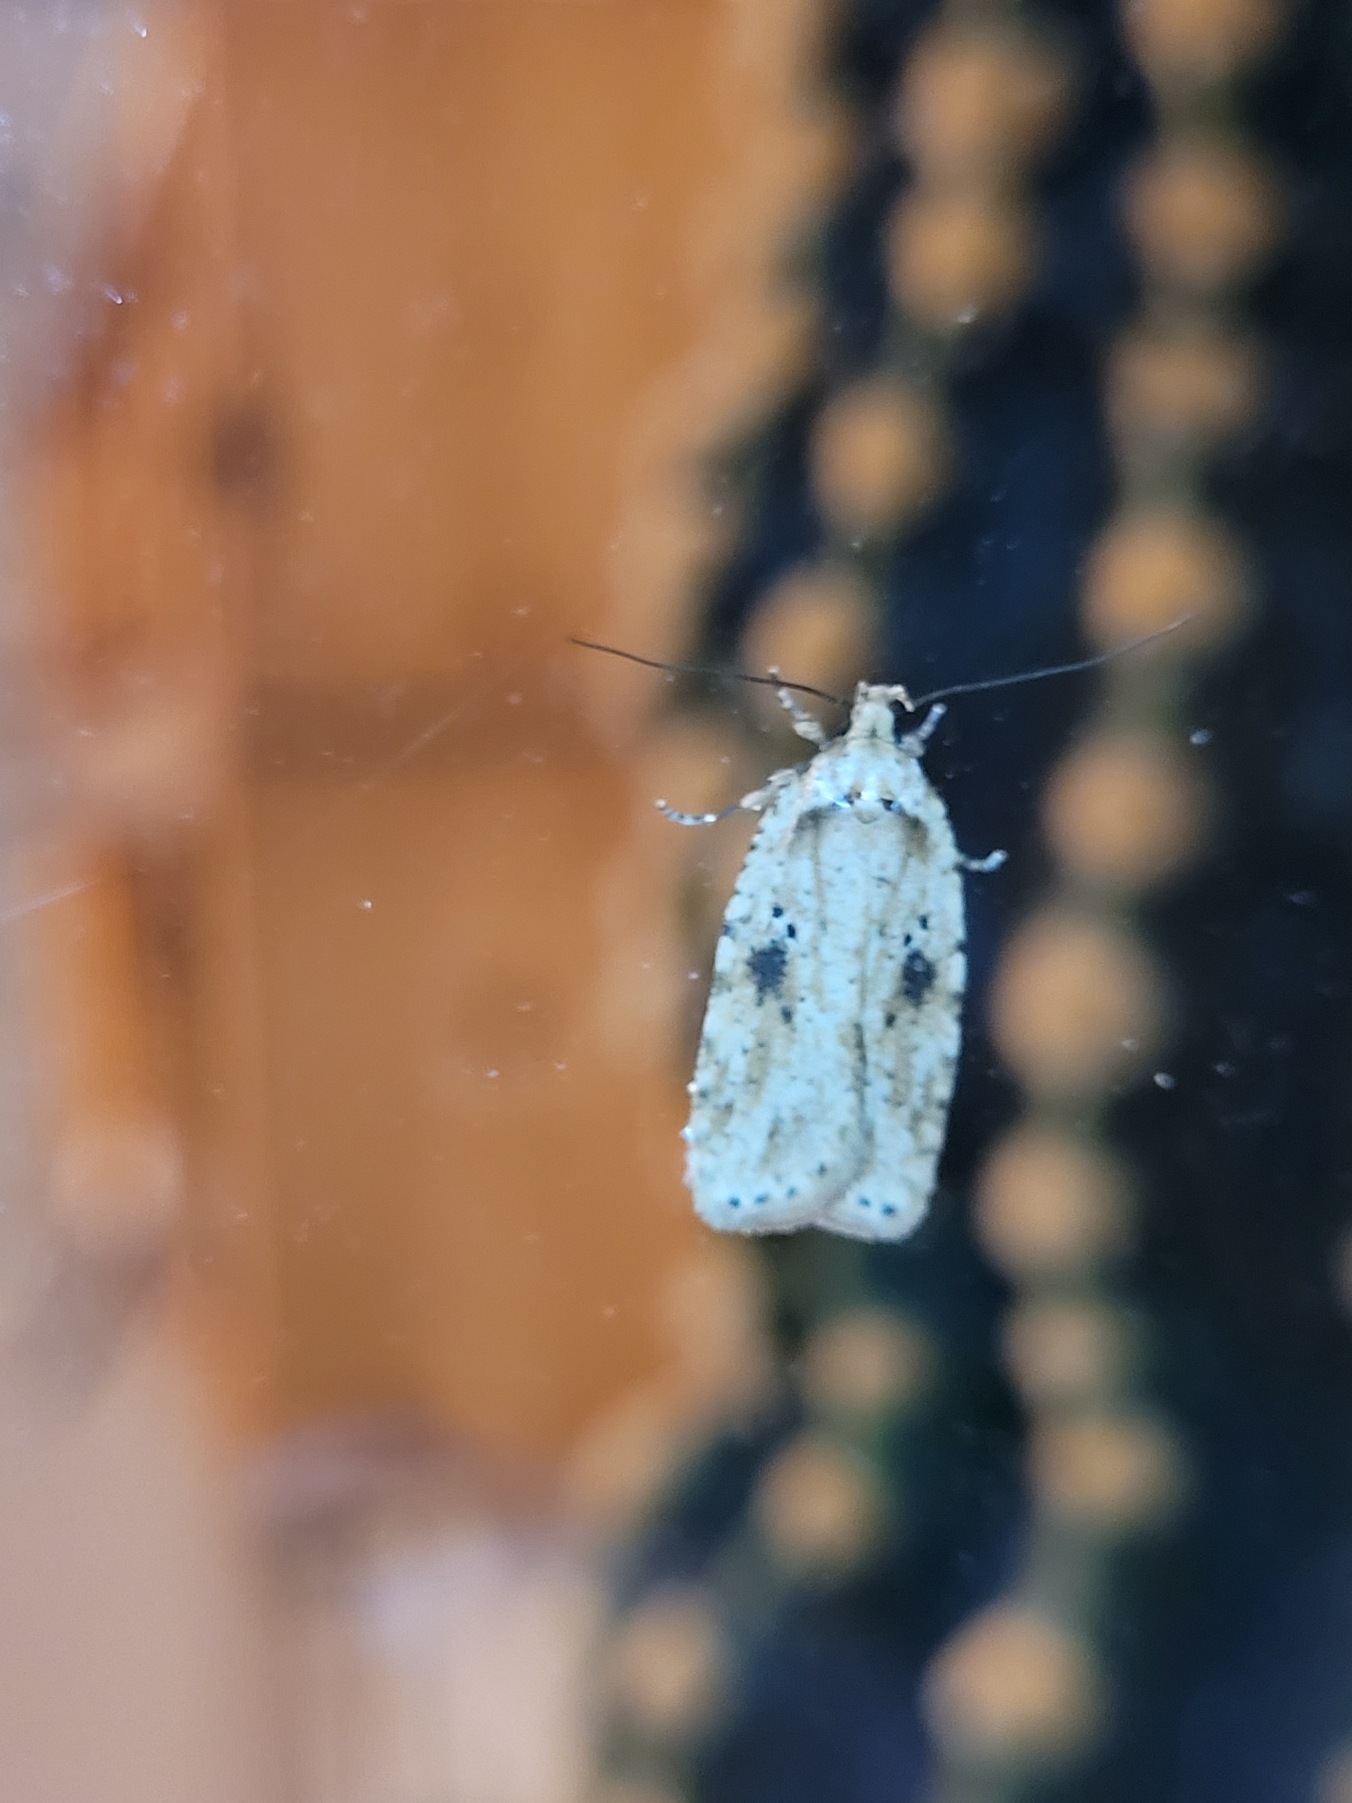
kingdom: Animalia
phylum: Arthropoda
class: Insecta
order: Lepidoptera
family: Depressariidae
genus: Agonopterix
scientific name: Agonopterix arenella
